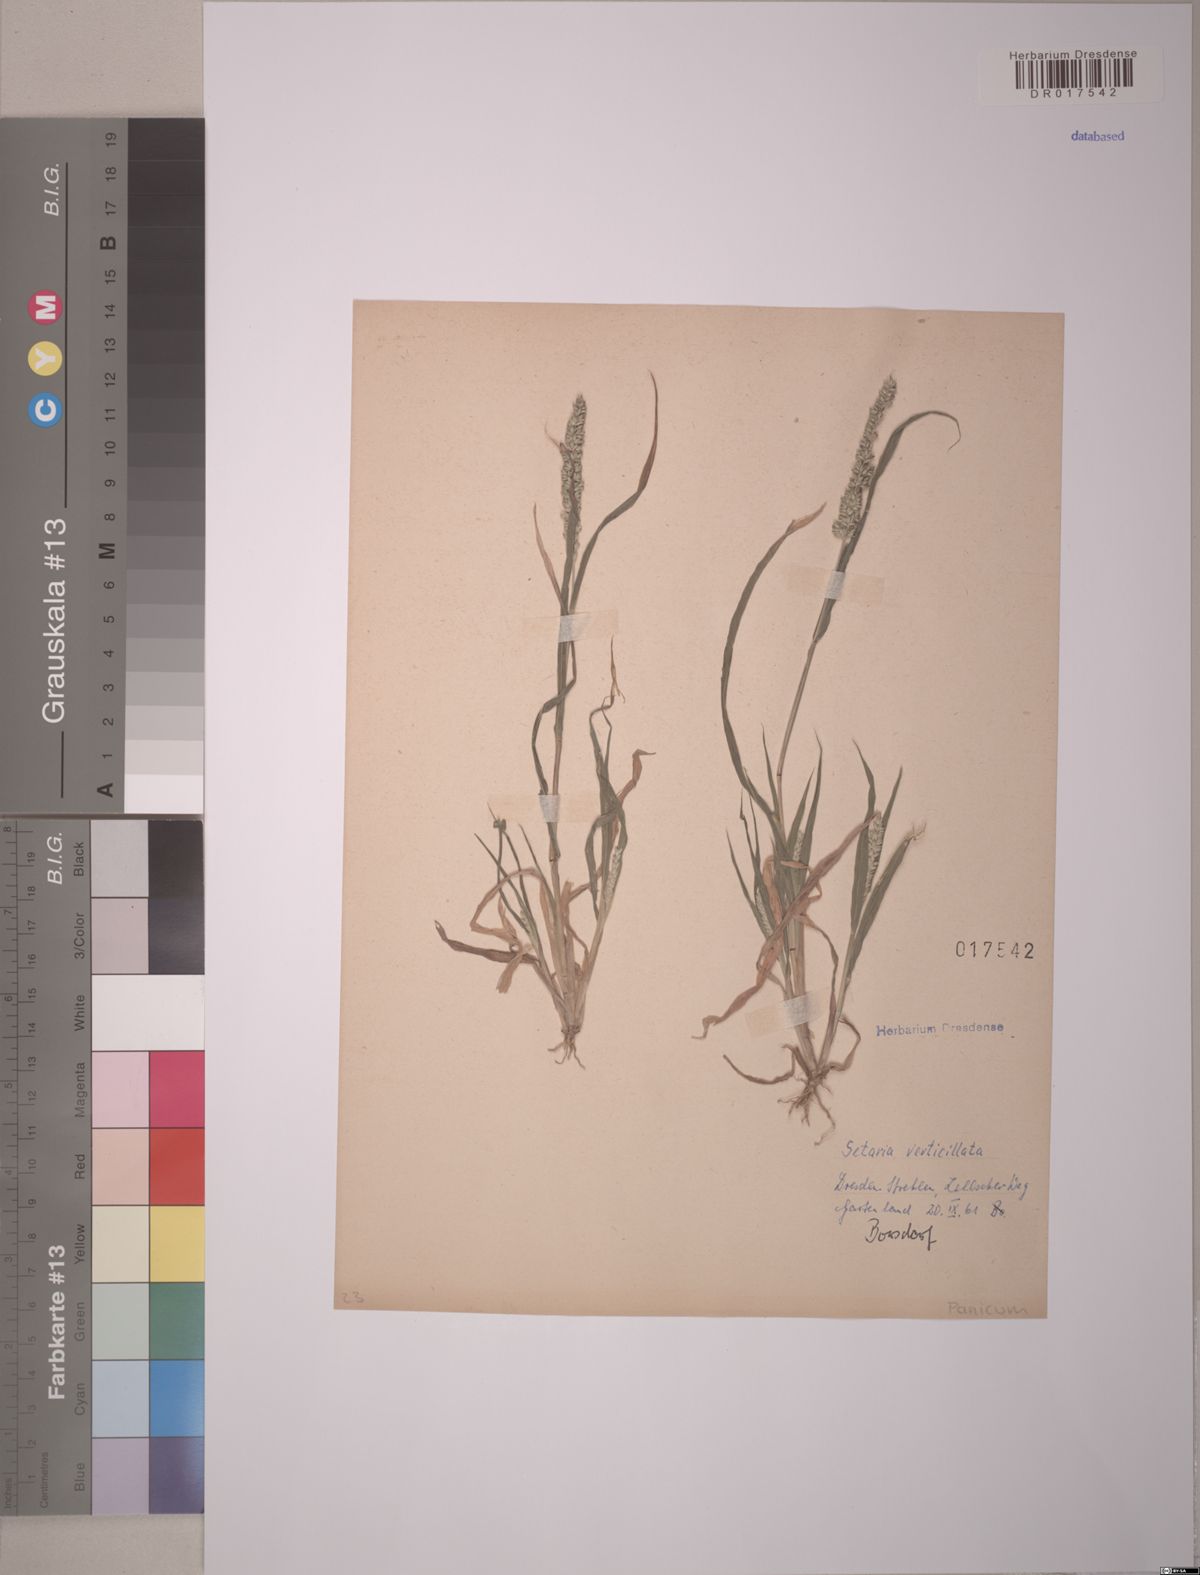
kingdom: Plantae
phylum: Tracheophyta
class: Liliopsida
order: Poales
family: Poaceae
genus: Setaria
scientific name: Setaria verticillata
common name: Hooked bristlegrass
